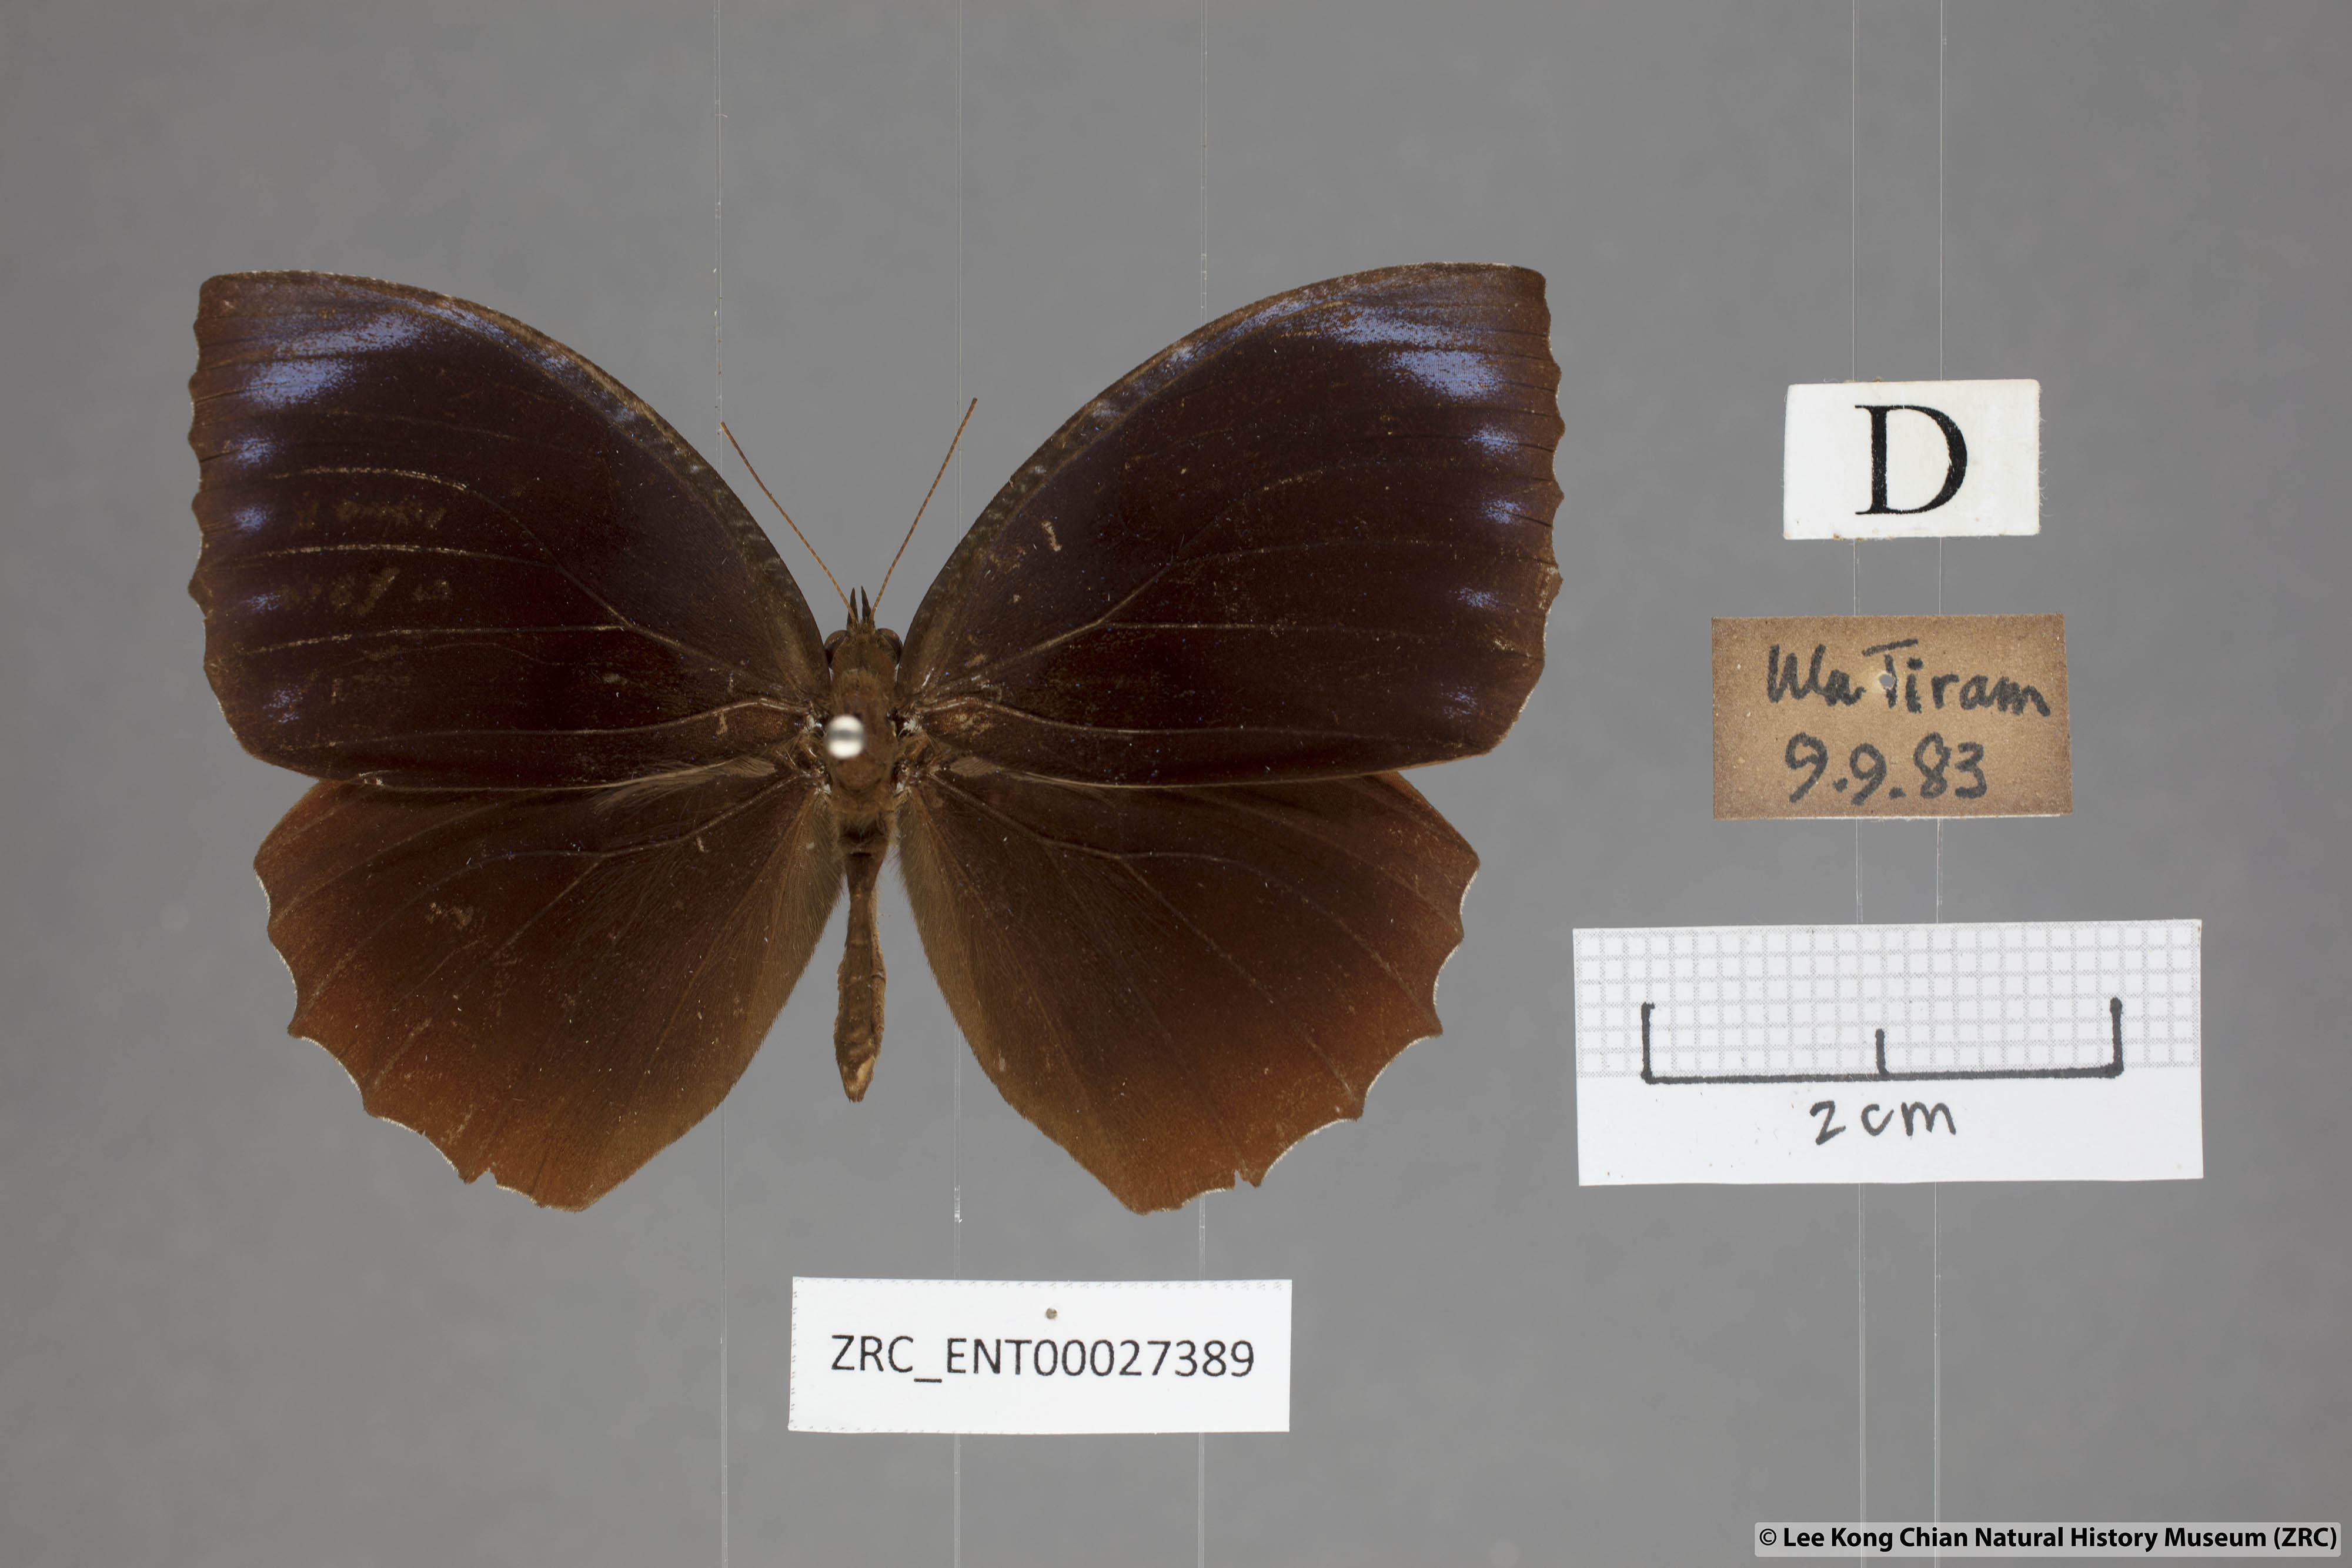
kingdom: Animalia
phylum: Arthropoda
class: Insecta
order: Lepidoptera
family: Nymphalidae
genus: Elymnias
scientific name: Elymnias hypermnestra
